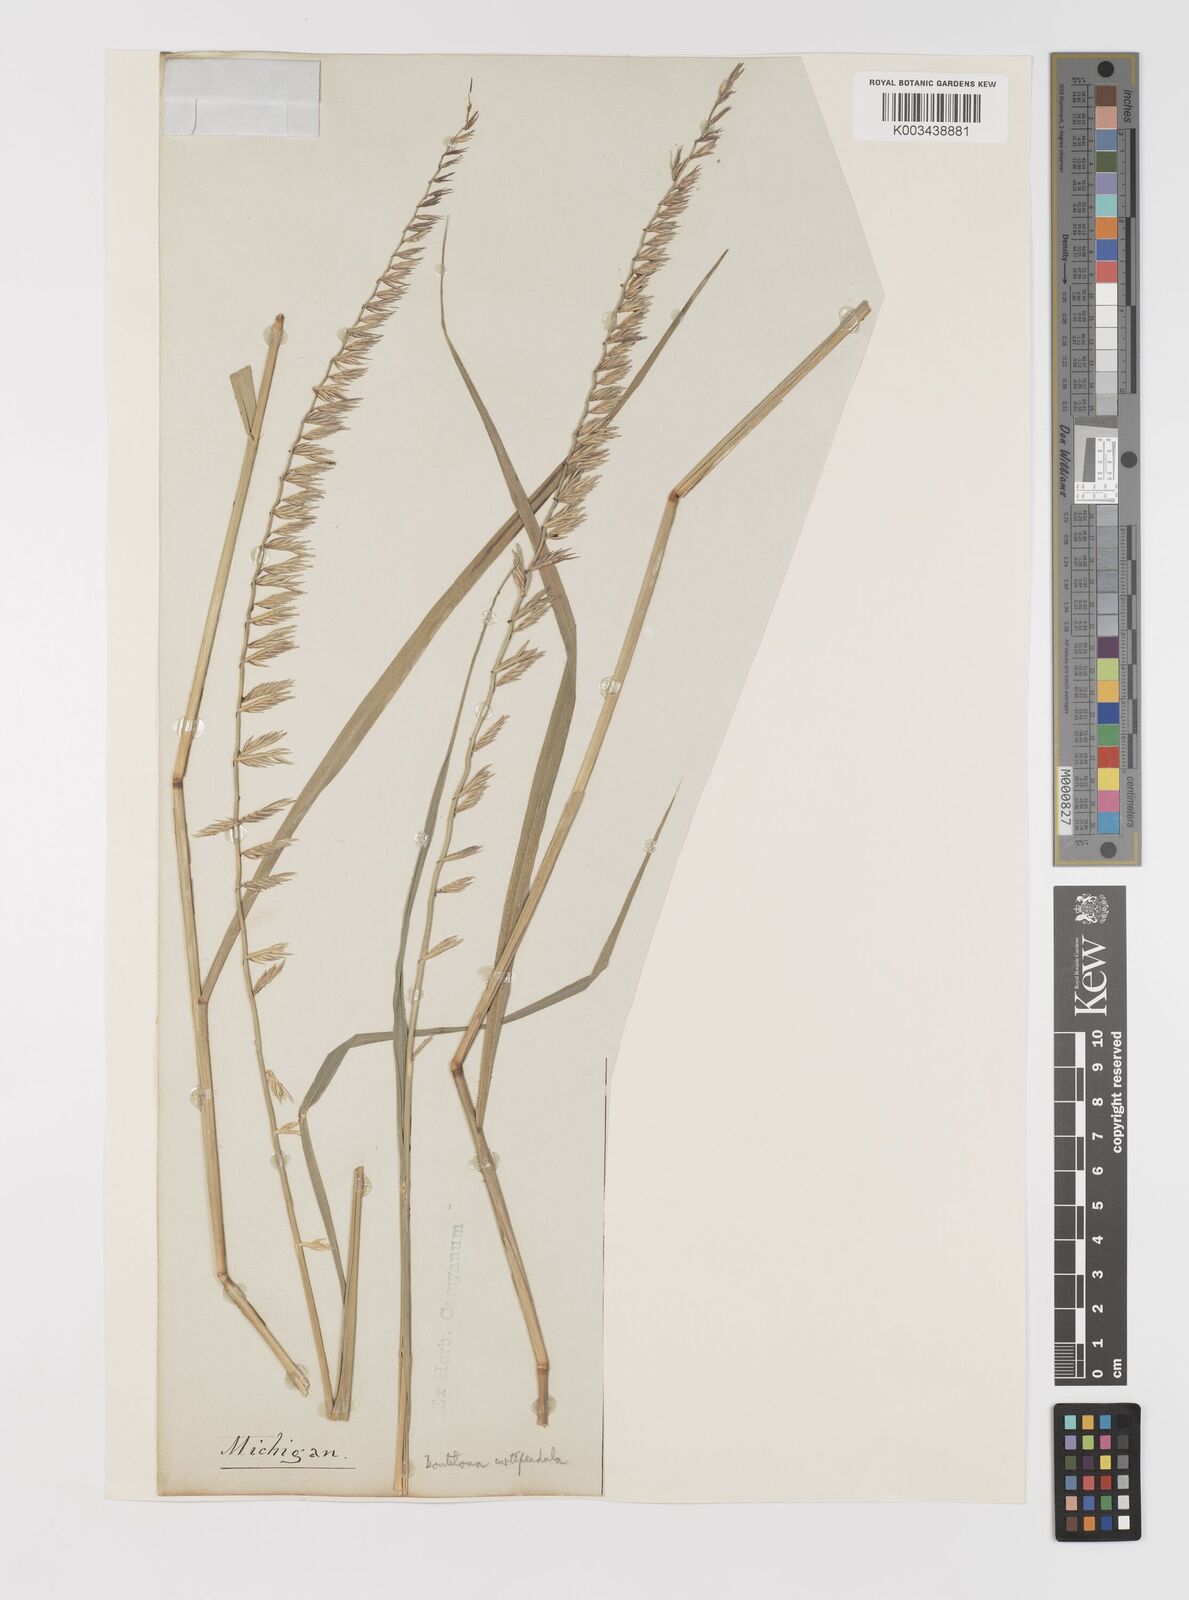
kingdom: Plantae
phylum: Tracheophyta
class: Liliopsida
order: Poales
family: Poaceae
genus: Bouteloua
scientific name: Bouteloua curtipendula
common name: Side-oats grama
